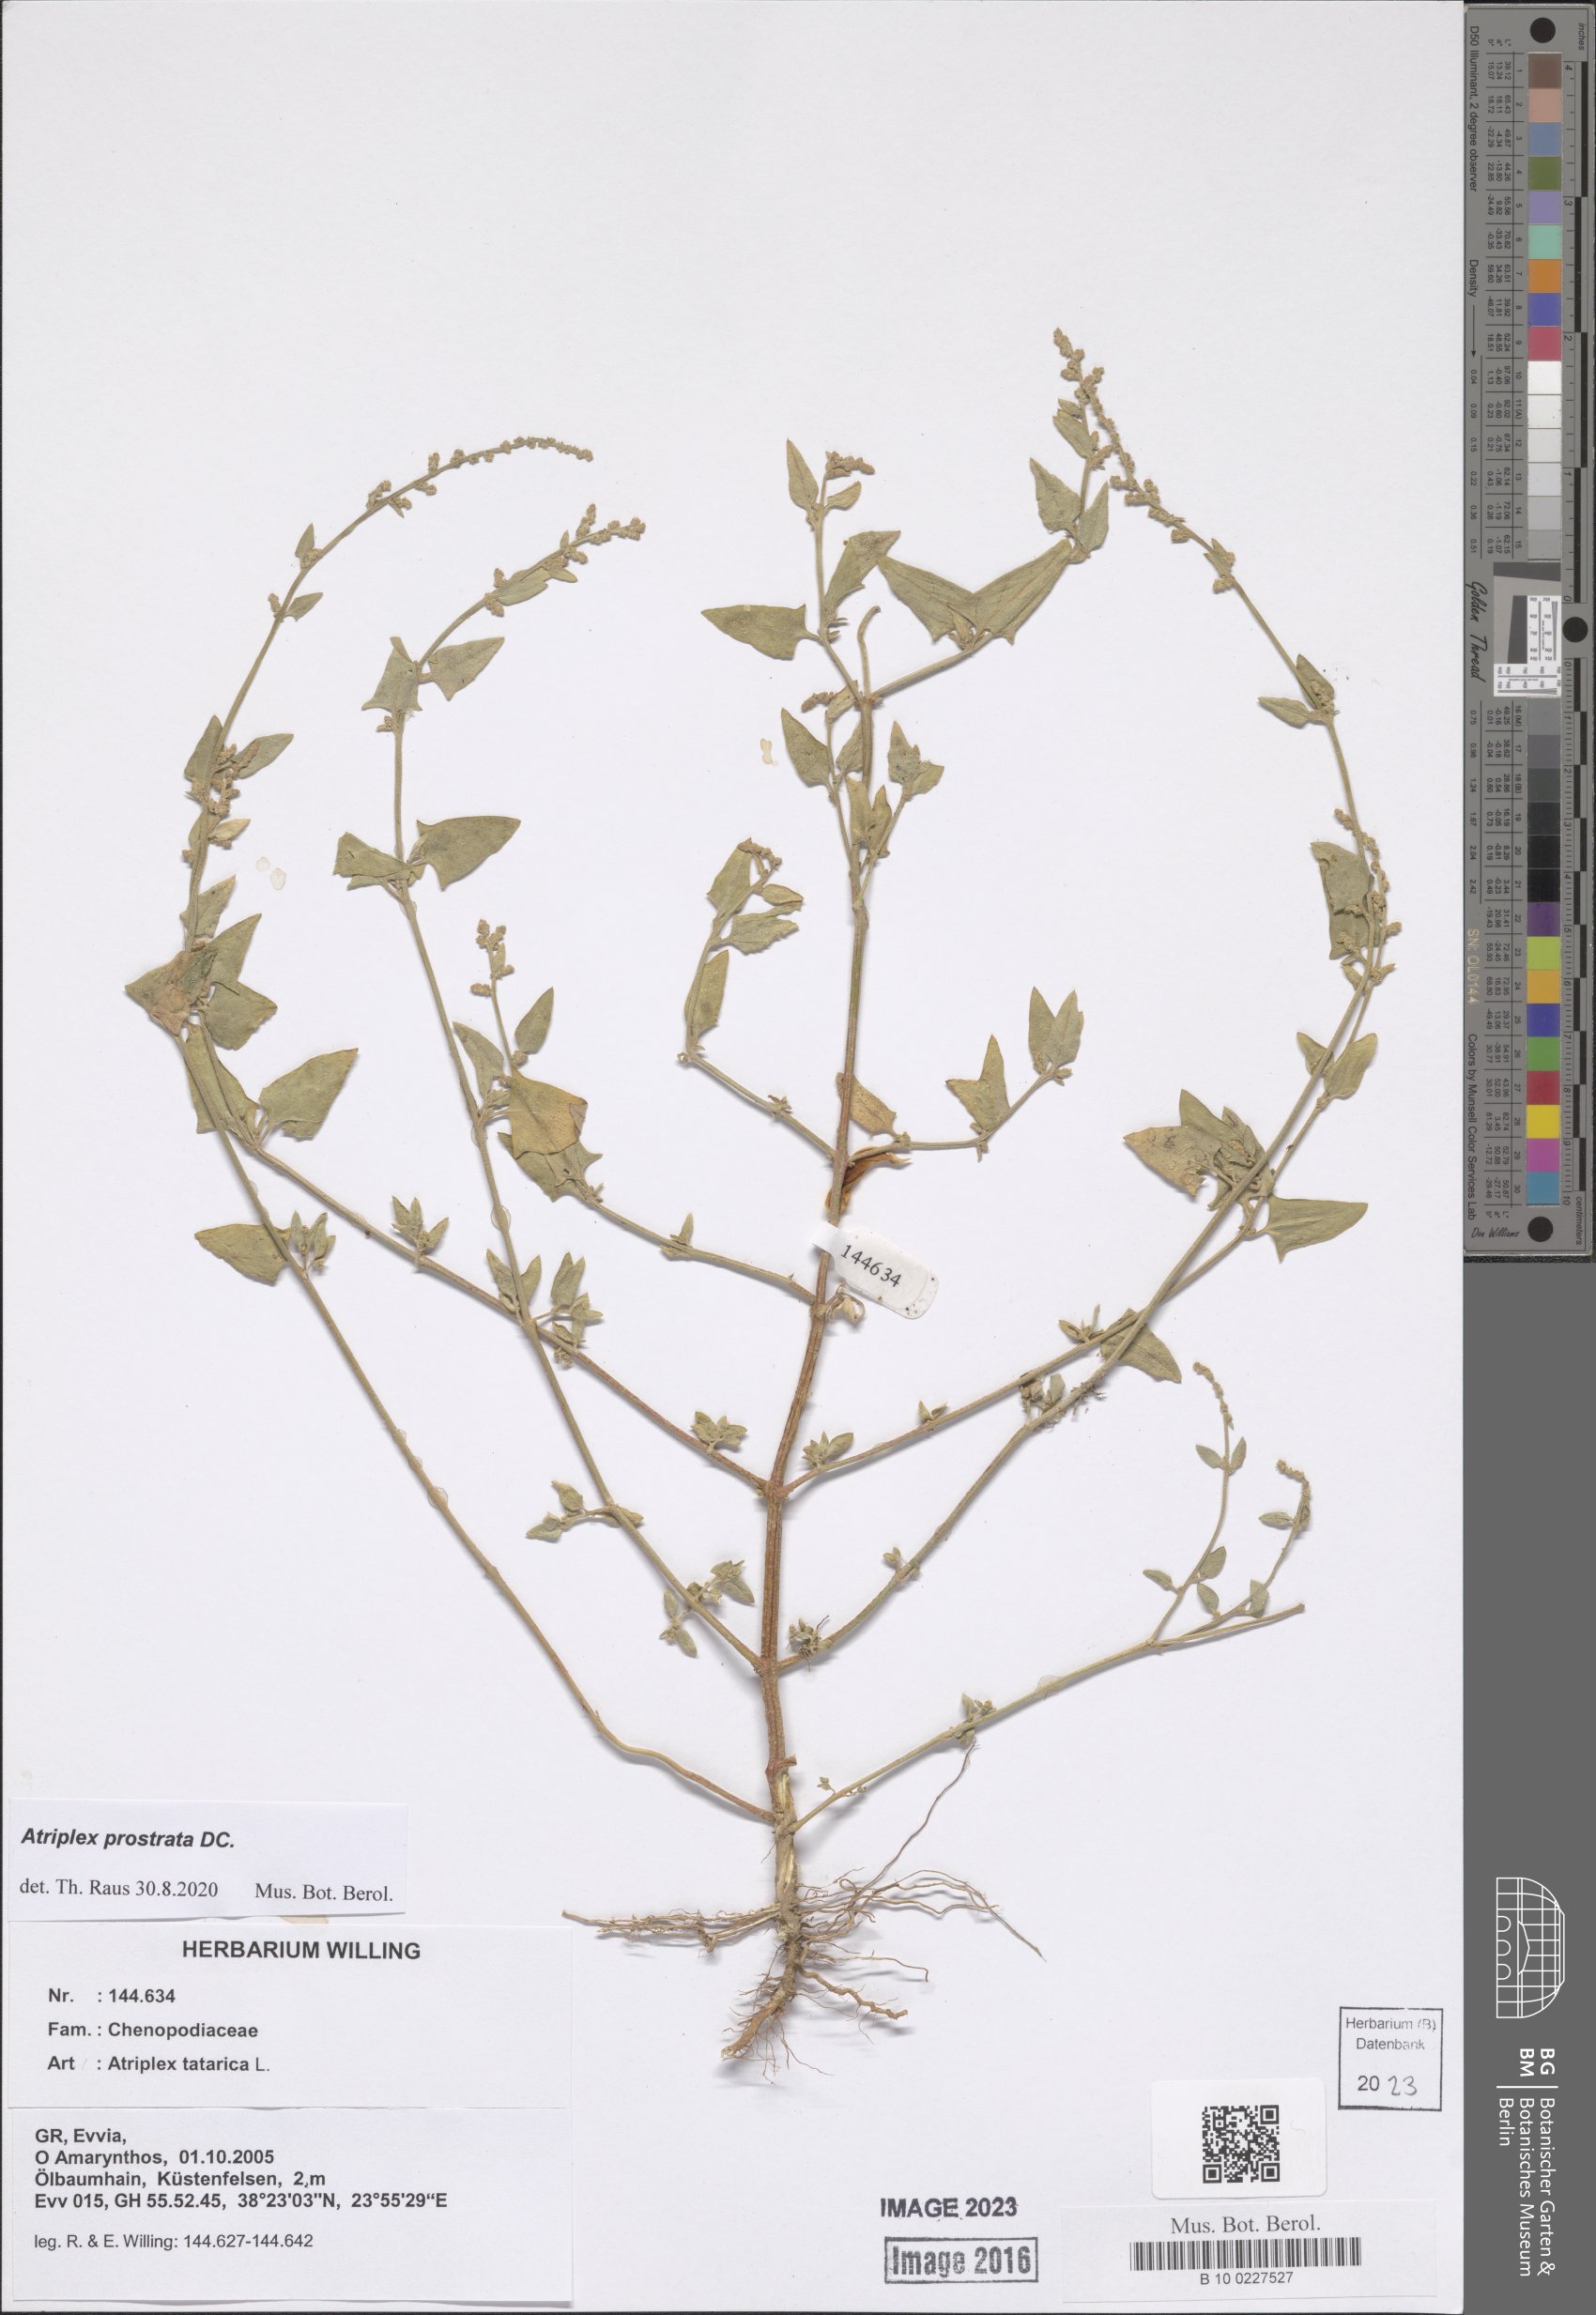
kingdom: Plantae
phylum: Tracheophyta
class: Magnoliopsida
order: Caryophyllales
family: Amaranthaceae
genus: Atriplex
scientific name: Atriplex prostrata
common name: Spear-leaved orache
